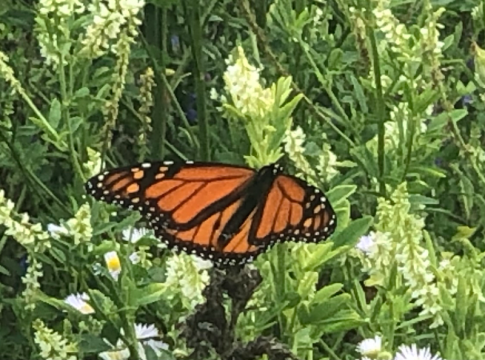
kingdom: Animalia
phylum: Arthropoda
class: Insecta
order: Lepidoptera
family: Nymphalidae
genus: Danaus
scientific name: Danaus plexippus
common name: Monarch
